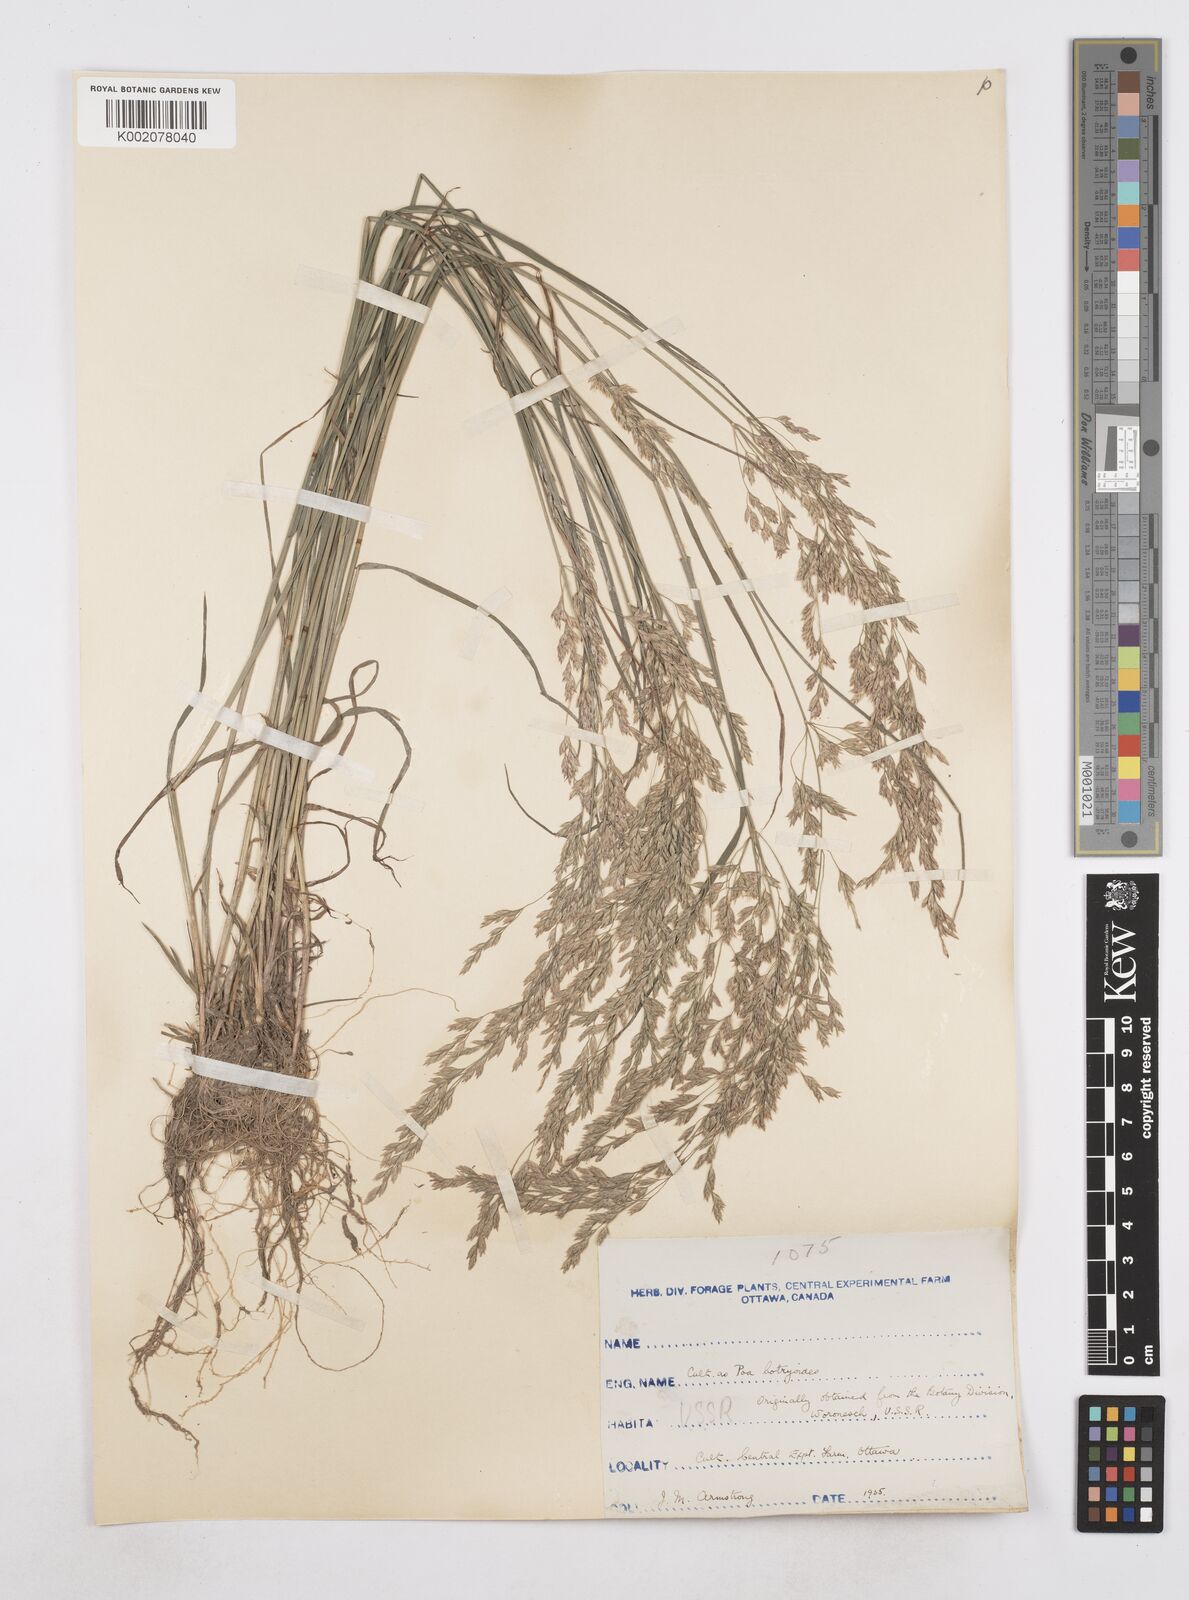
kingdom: Plantae
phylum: Tracheophyta
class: Liliopsida
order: Poales
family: Poaceae
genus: Poa
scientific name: Poa
